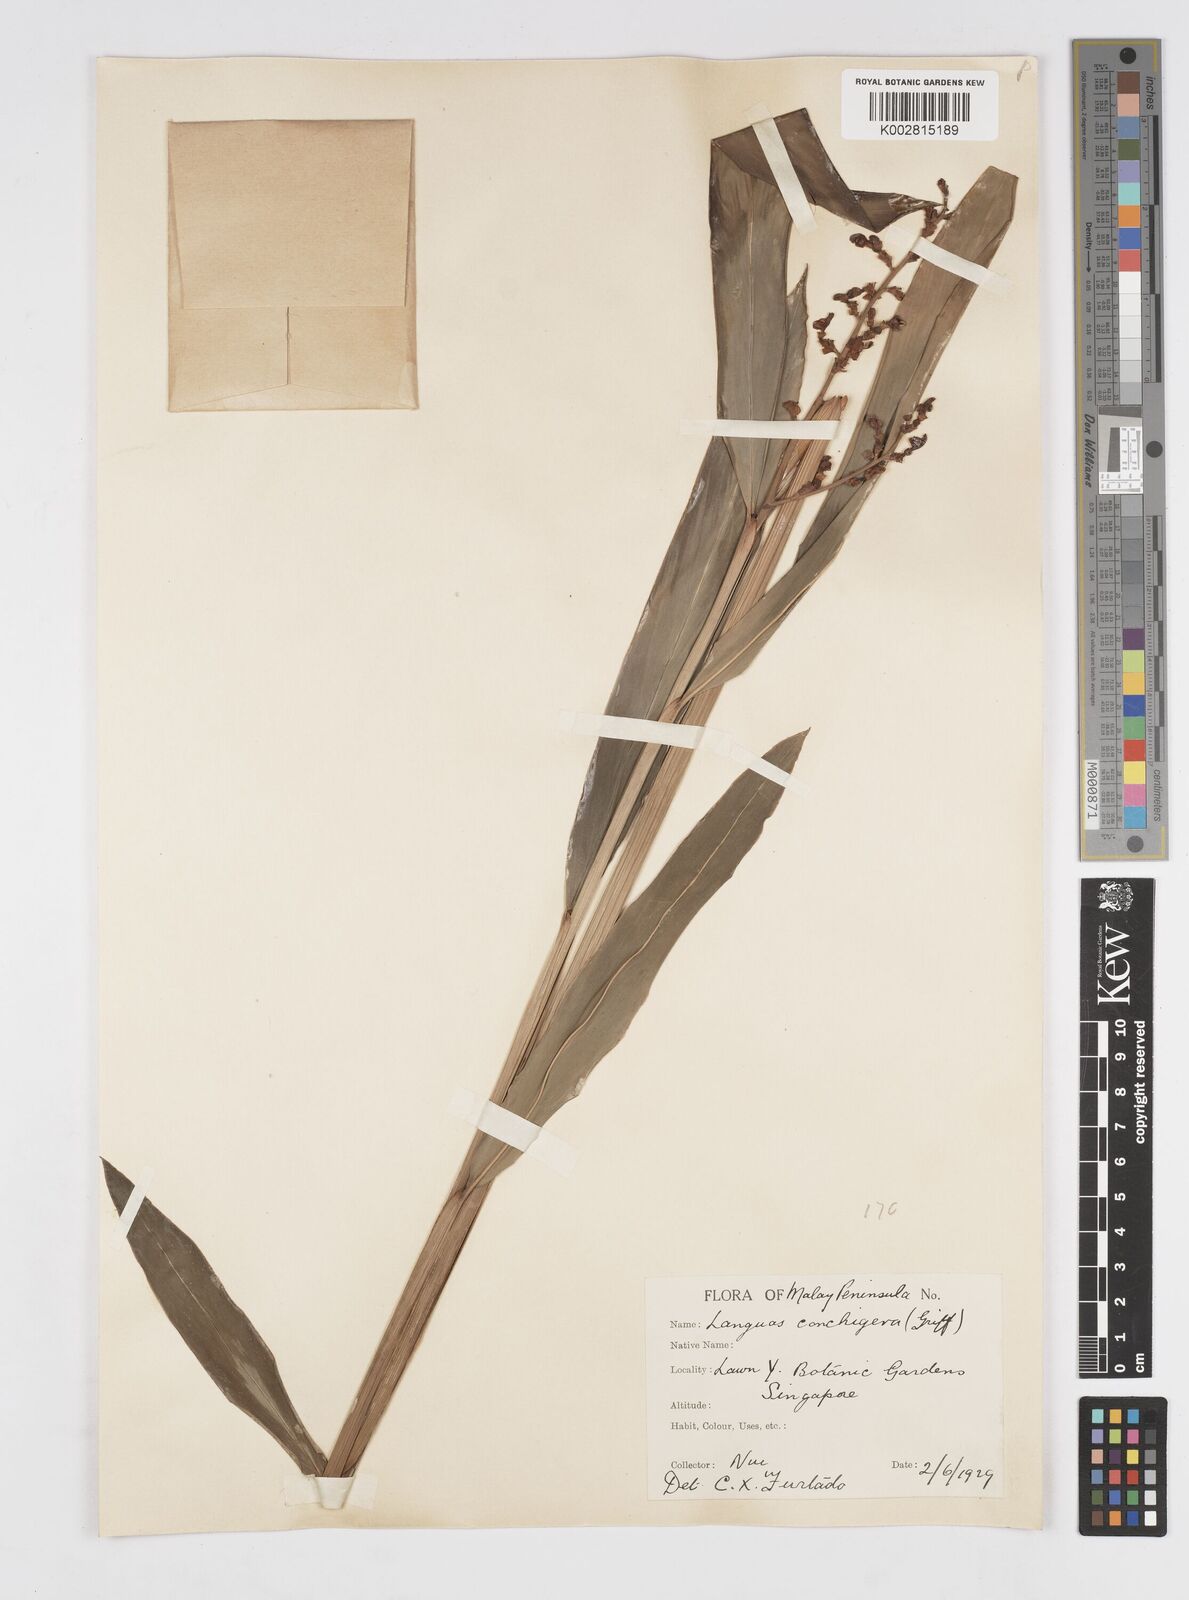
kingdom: Plantae
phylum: Tracheophyta
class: Liliopsida
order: Zingiberales
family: Zingiberaceae
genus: Alpinia
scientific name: Alpinia conchigera
